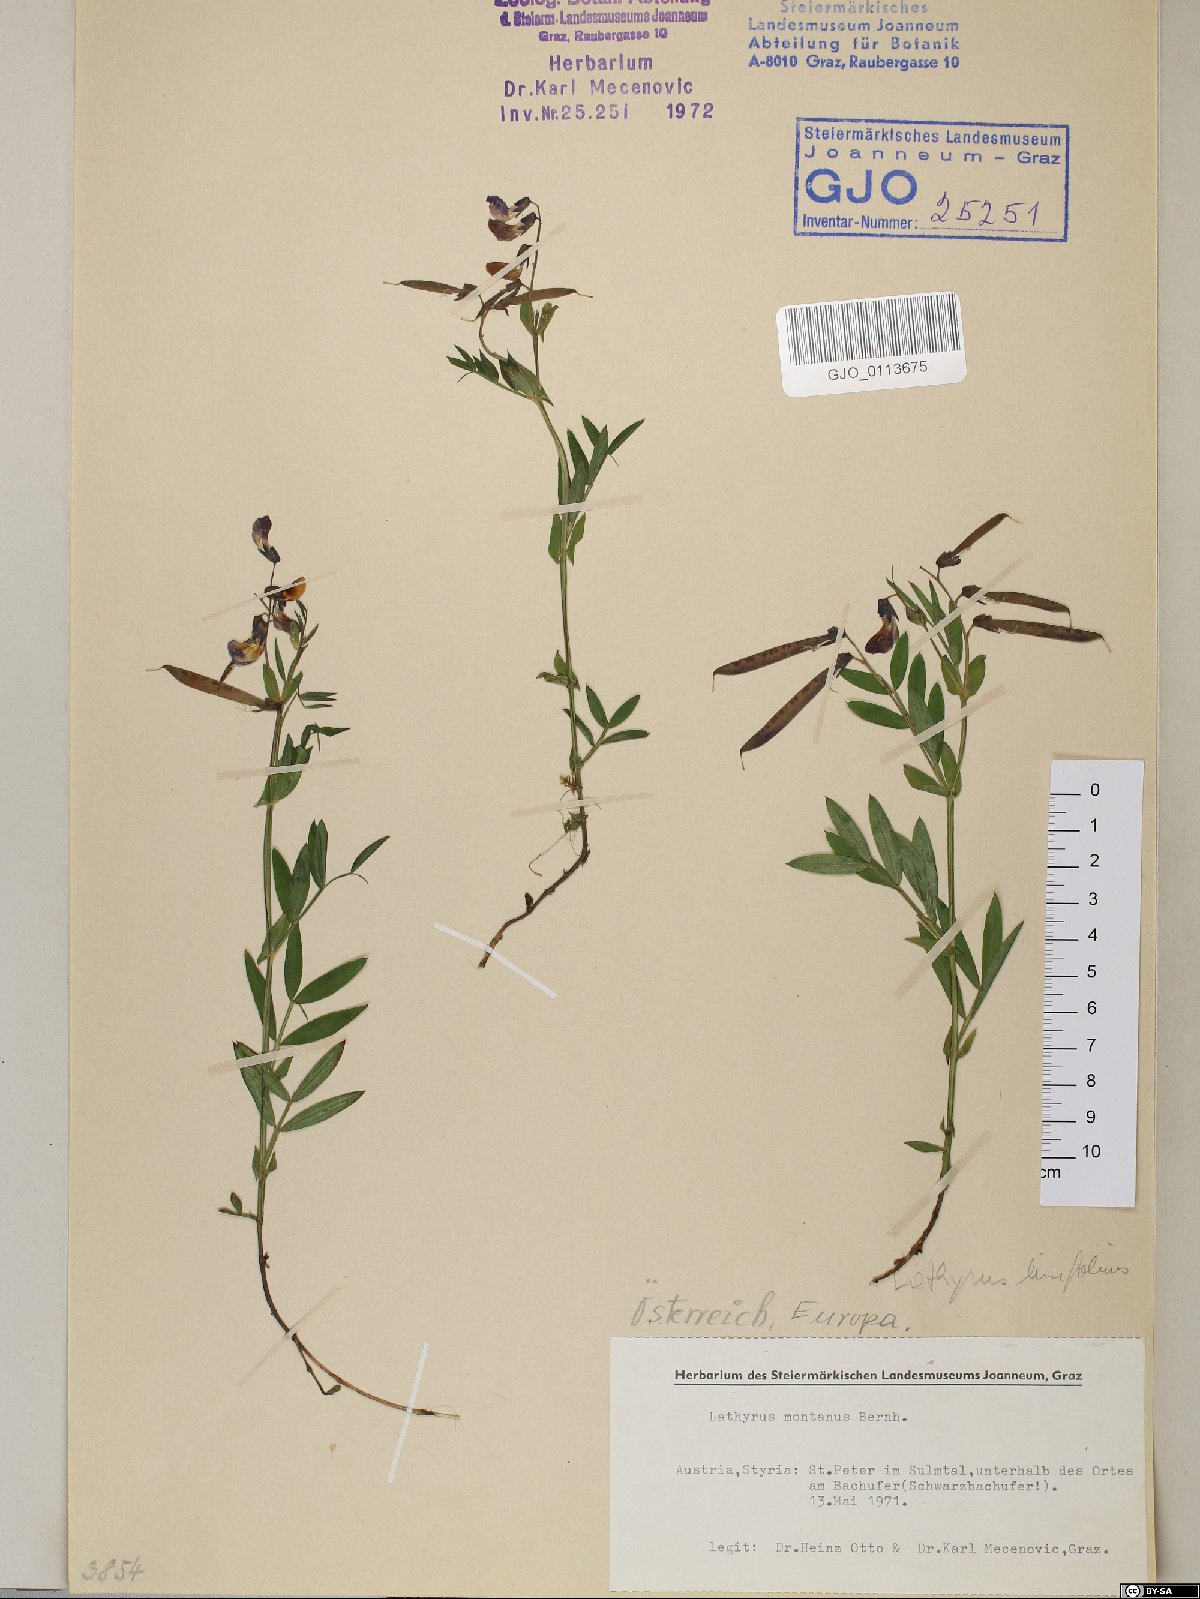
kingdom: Plantae
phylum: Tracheophyta
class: Magnoliopsida
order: Fabales
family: Fabaceae
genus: Lathyrus
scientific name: Lathyrus linifolius
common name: Bitter-vetch
